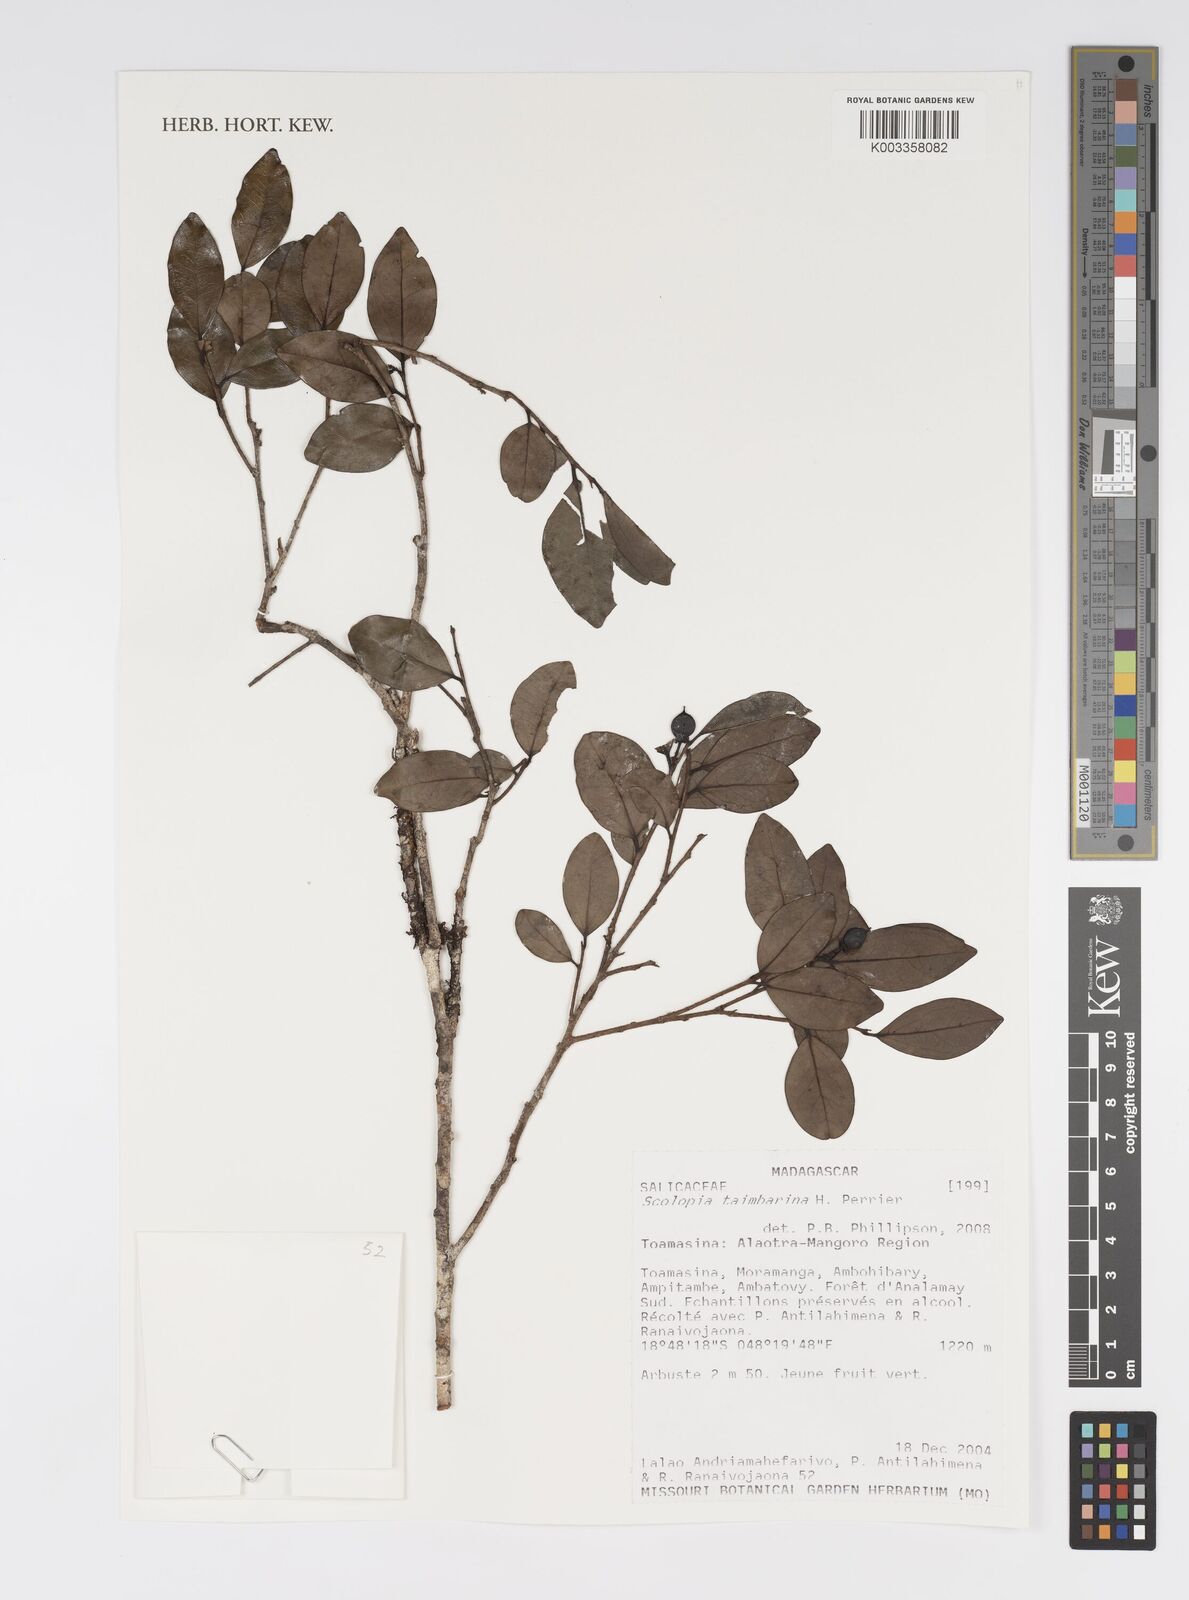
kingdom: Plantae
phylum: Tracheophyta
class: Magnoliopsida
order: Malpighiales
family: Salicaceae
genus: Scolopia
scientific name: Scolopia taimbarina
